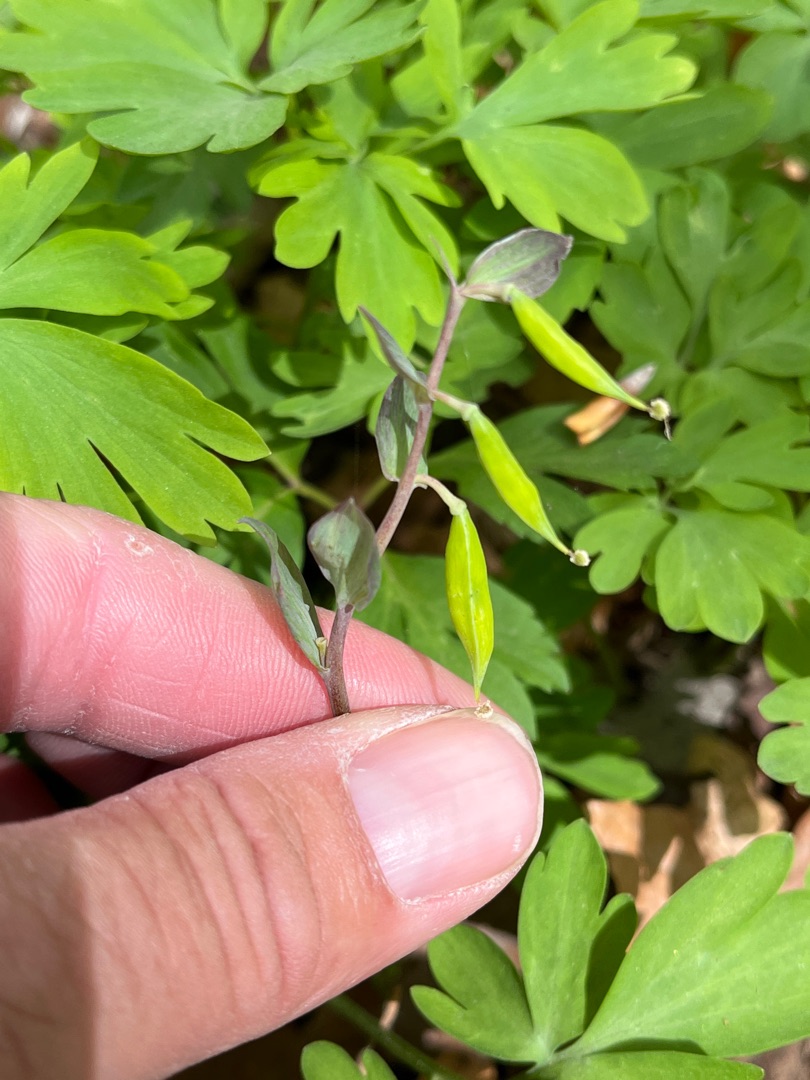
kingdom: Plantae
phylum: Tracheophyta
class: Magnoliopsida
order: Ranunculales
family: Papaveraceae
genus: Corydalis
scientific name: Corydalis cava
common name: Hulrodet lærkespore
